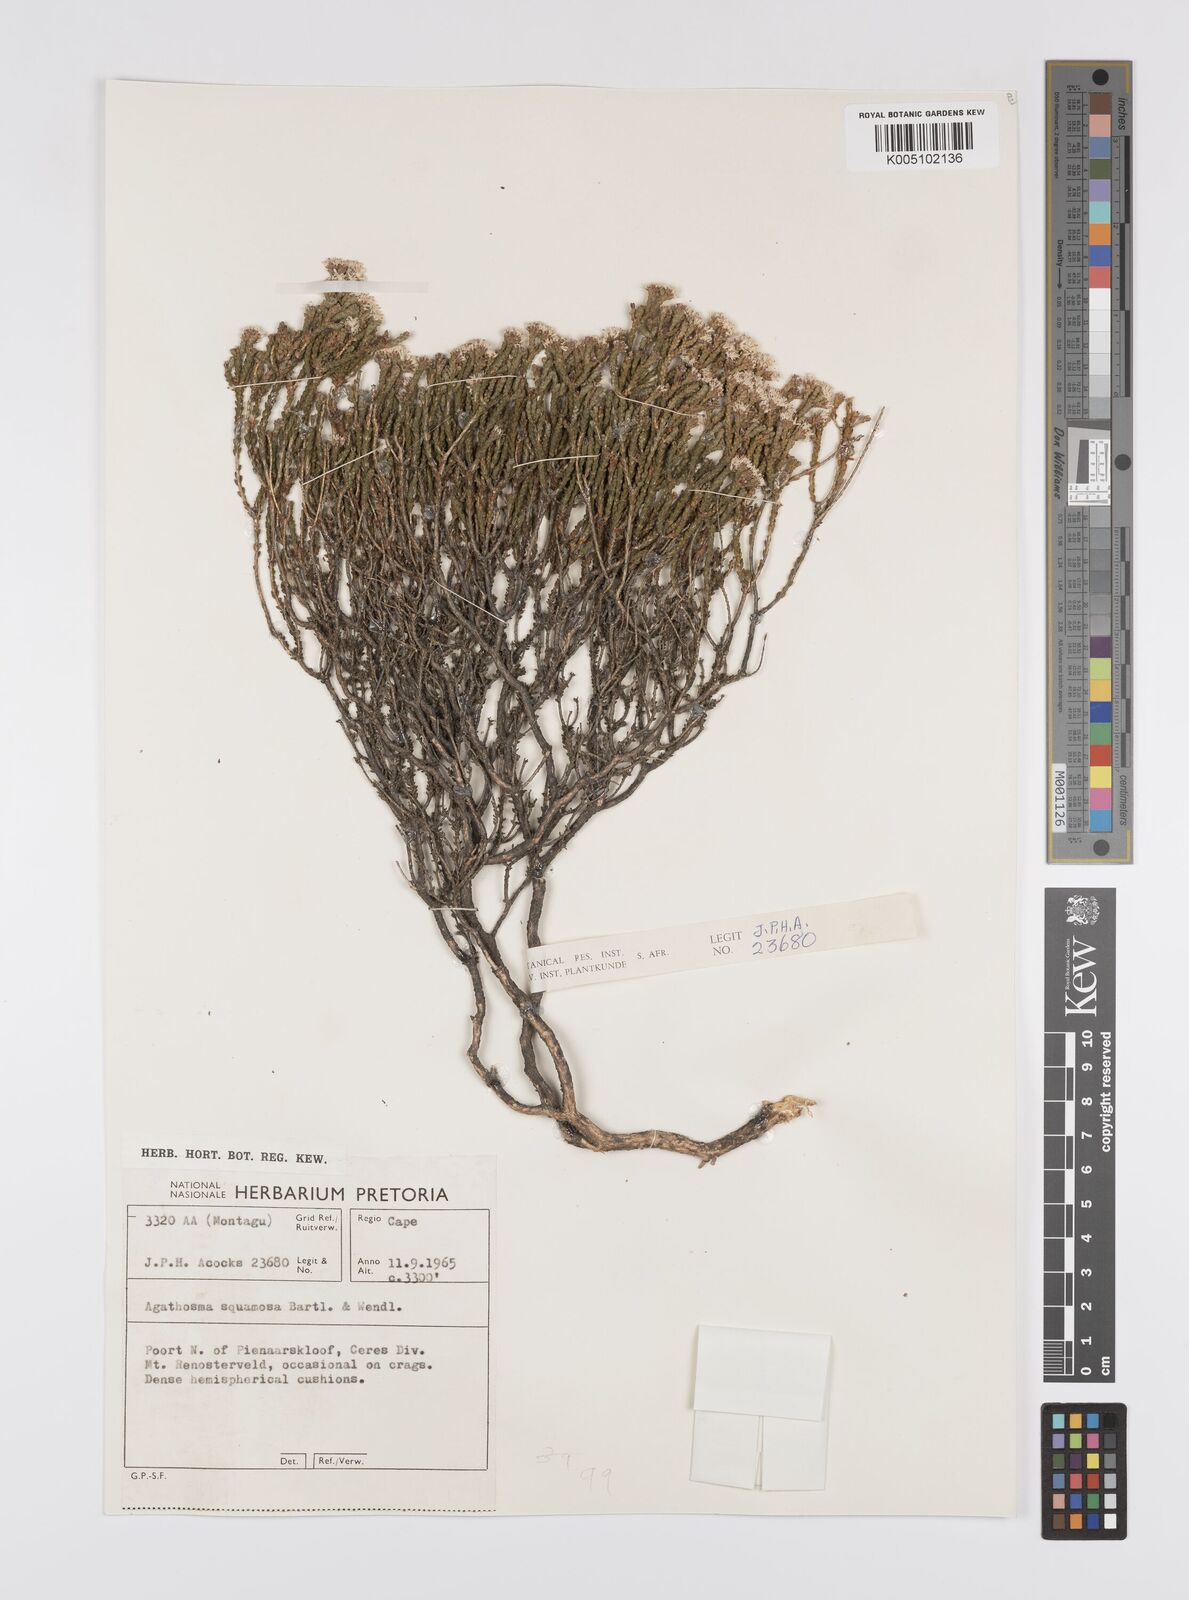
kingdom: Plantae
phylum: Tracheophyta
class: Magnoliopsida
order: Sapindales
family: Rutaceae
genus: Agathosma
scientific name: Agathosma squamosa
